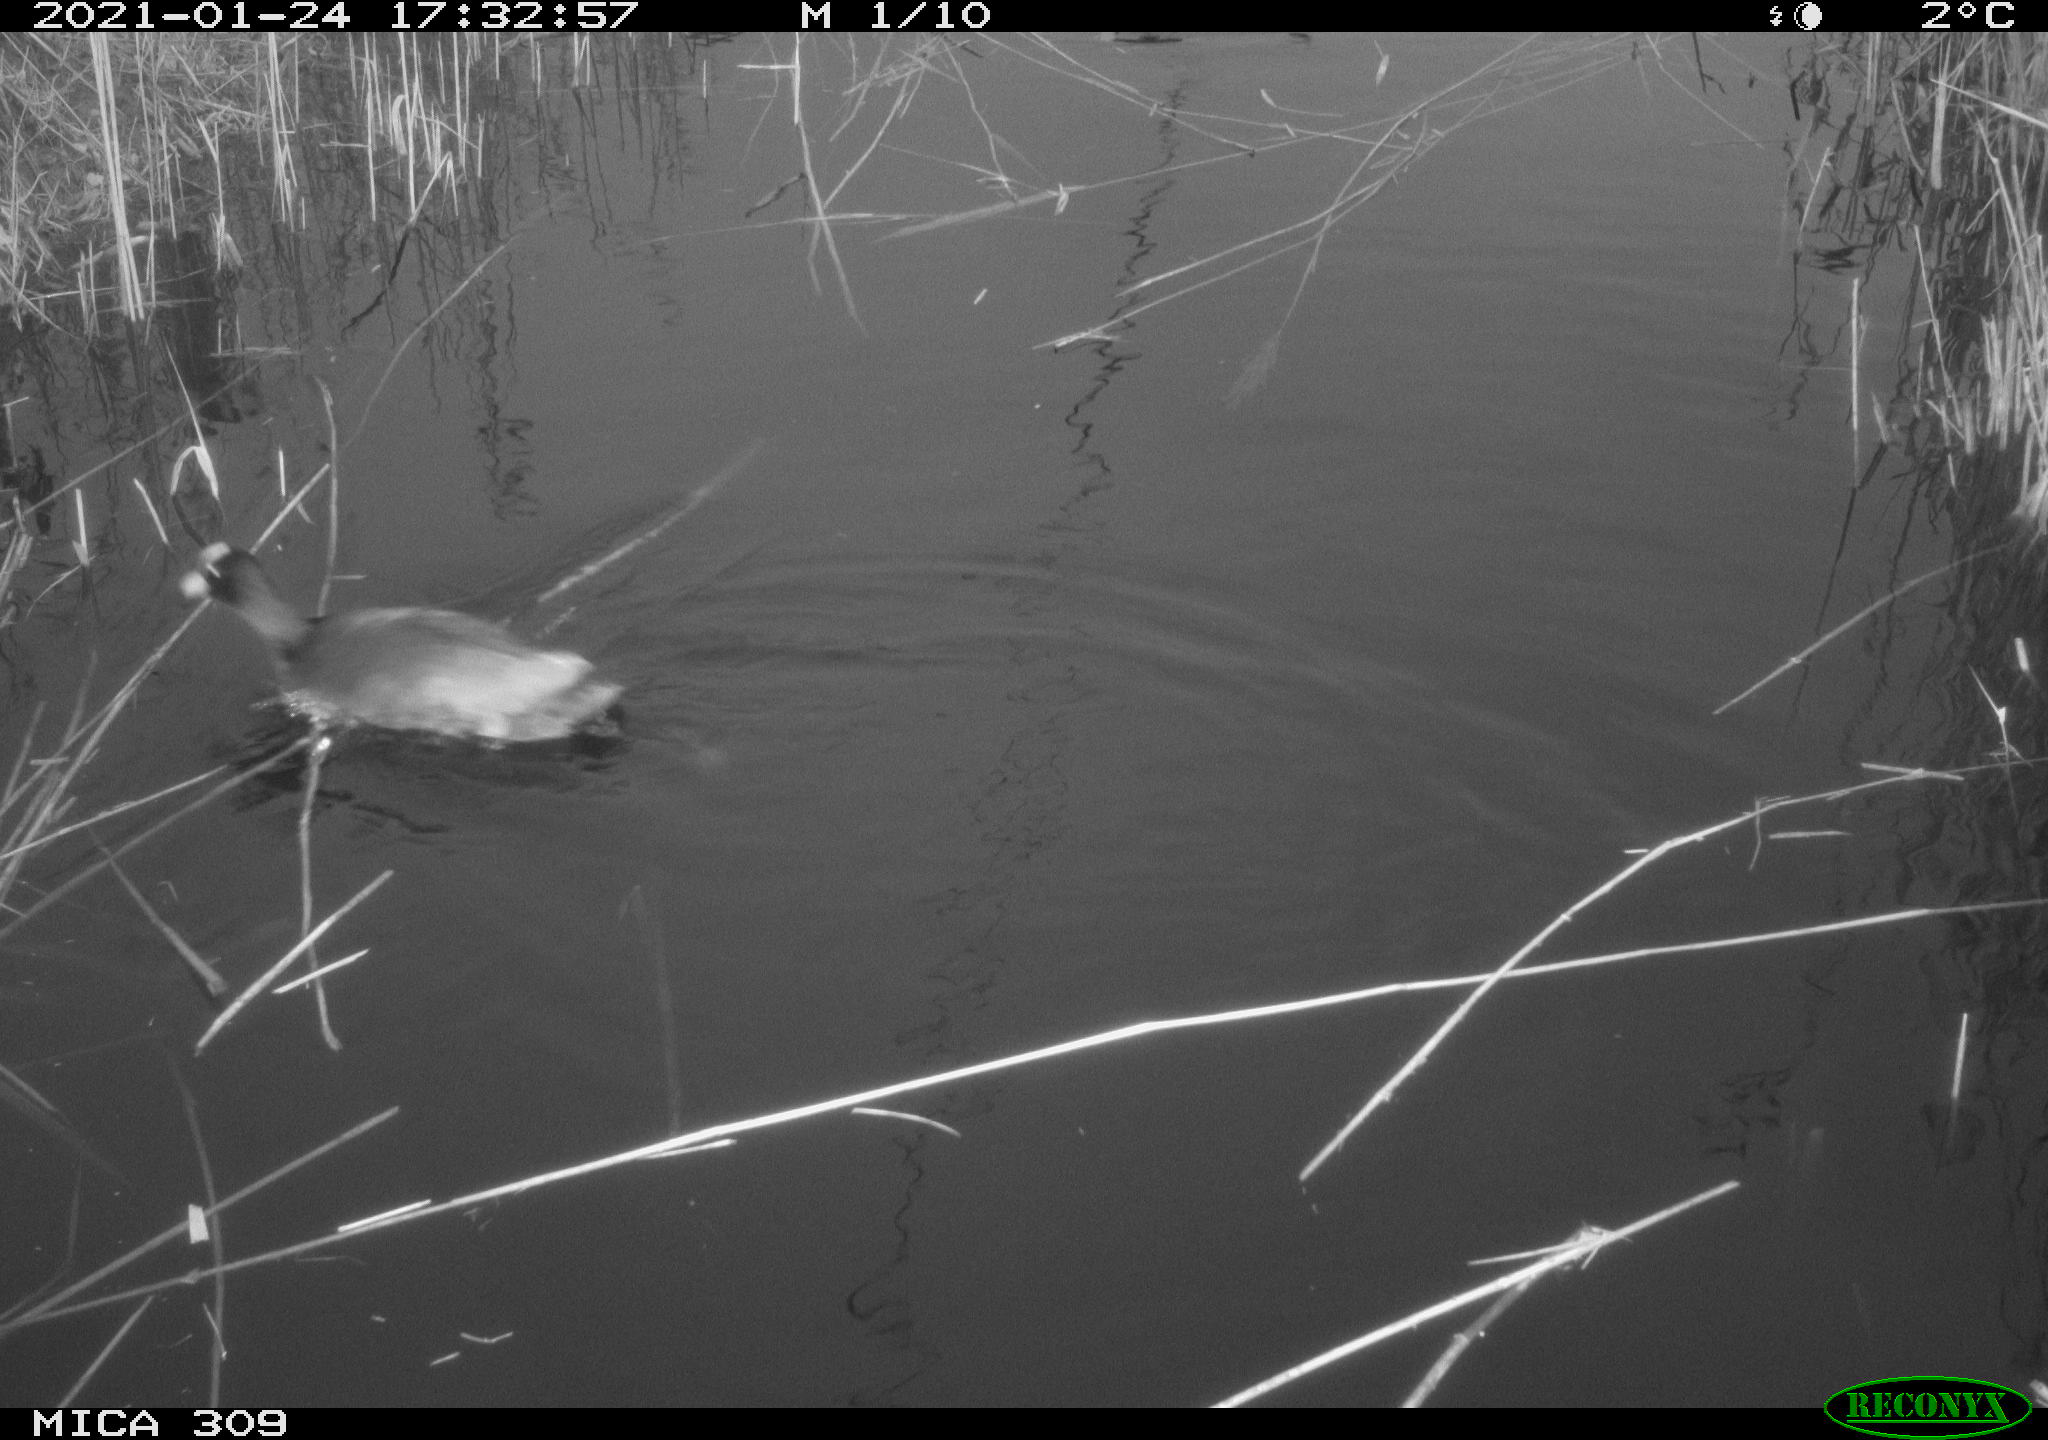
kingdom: Animalia
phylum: Chordata
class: Aves
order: Gruiformes
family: Rallidae
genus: Fulica
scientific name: Fulica atra
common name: Eurasian coot
